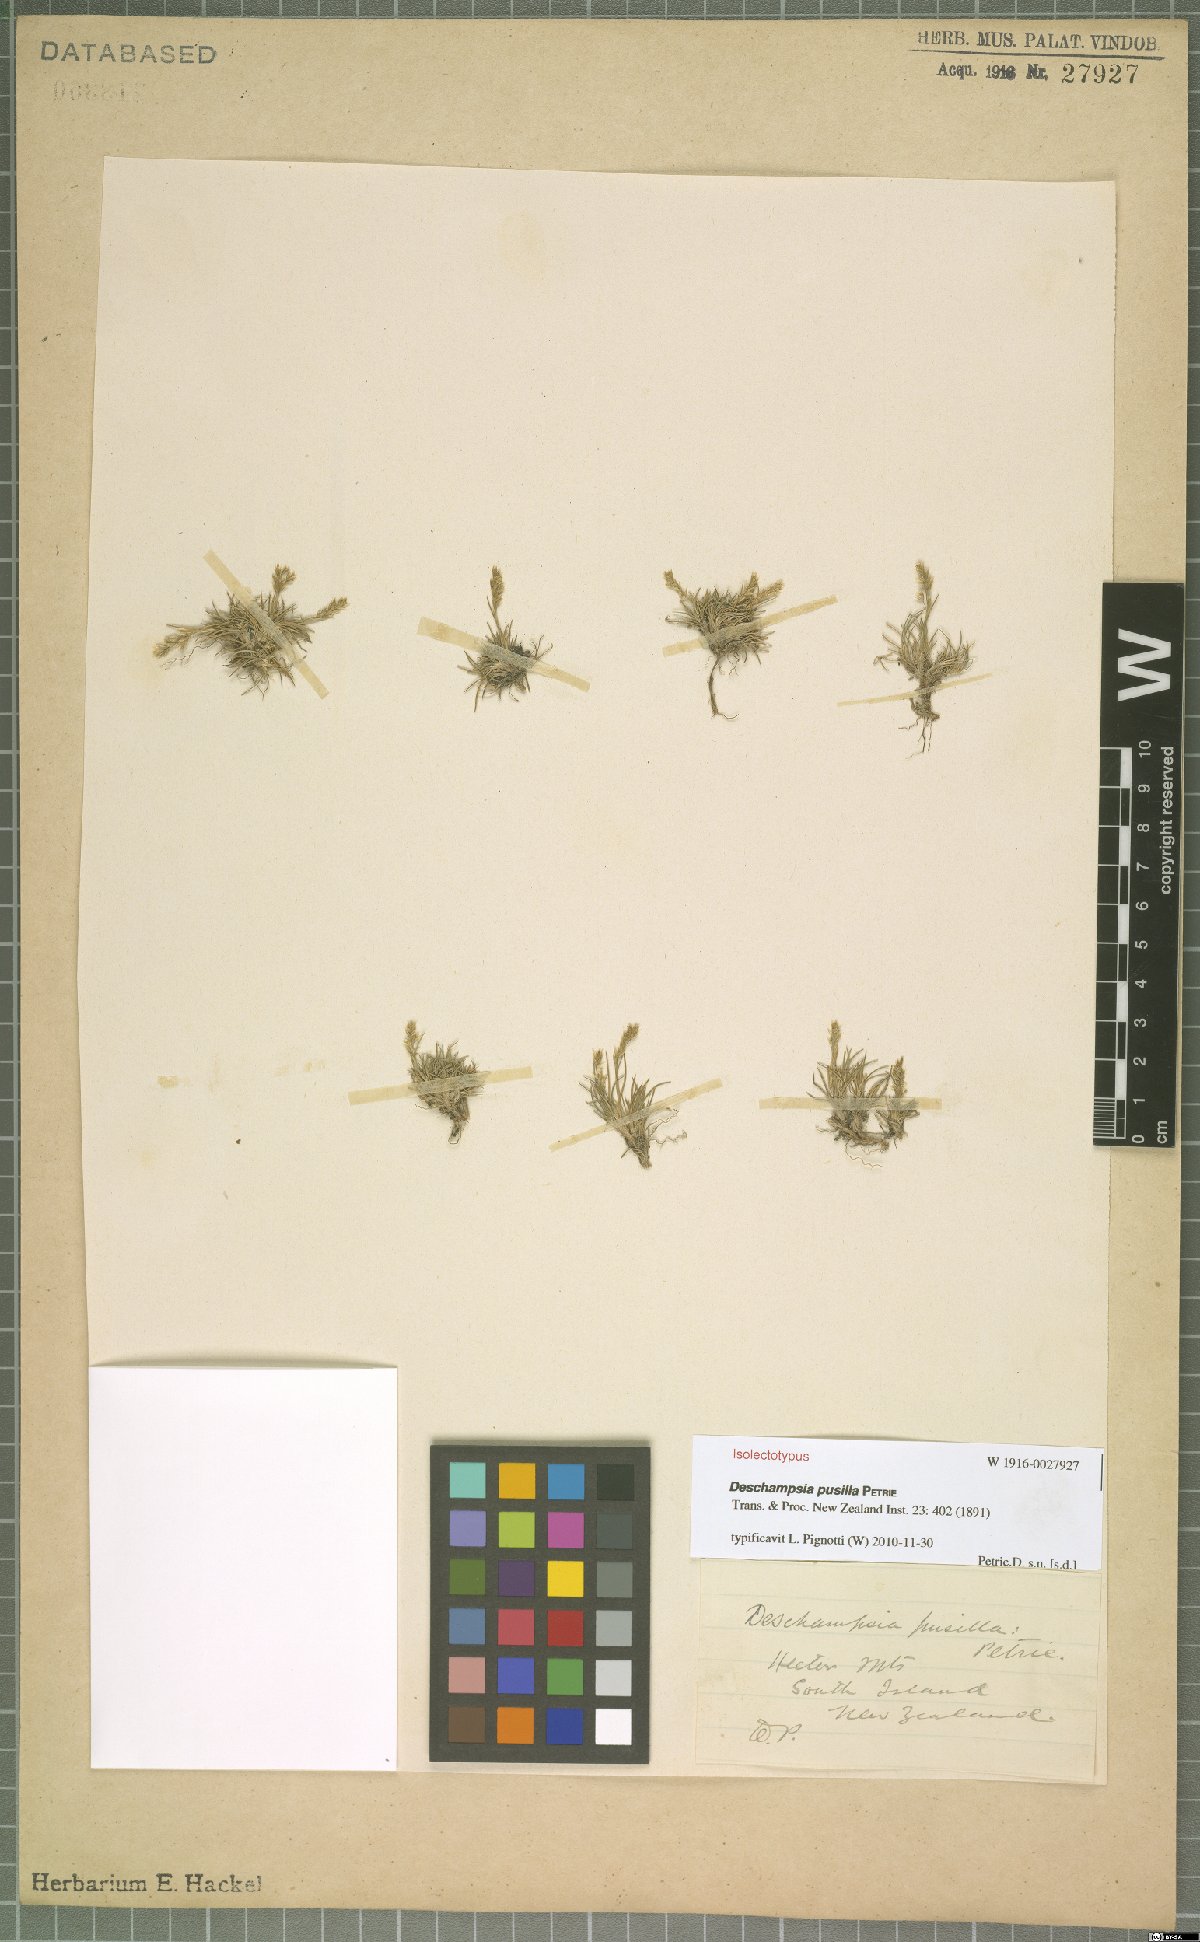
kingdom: Plantae
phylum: Tracheophyta
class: Liliopsida
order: Poales
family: Poaceae
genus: Deschampsia
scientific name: Deschampsia pusilla
